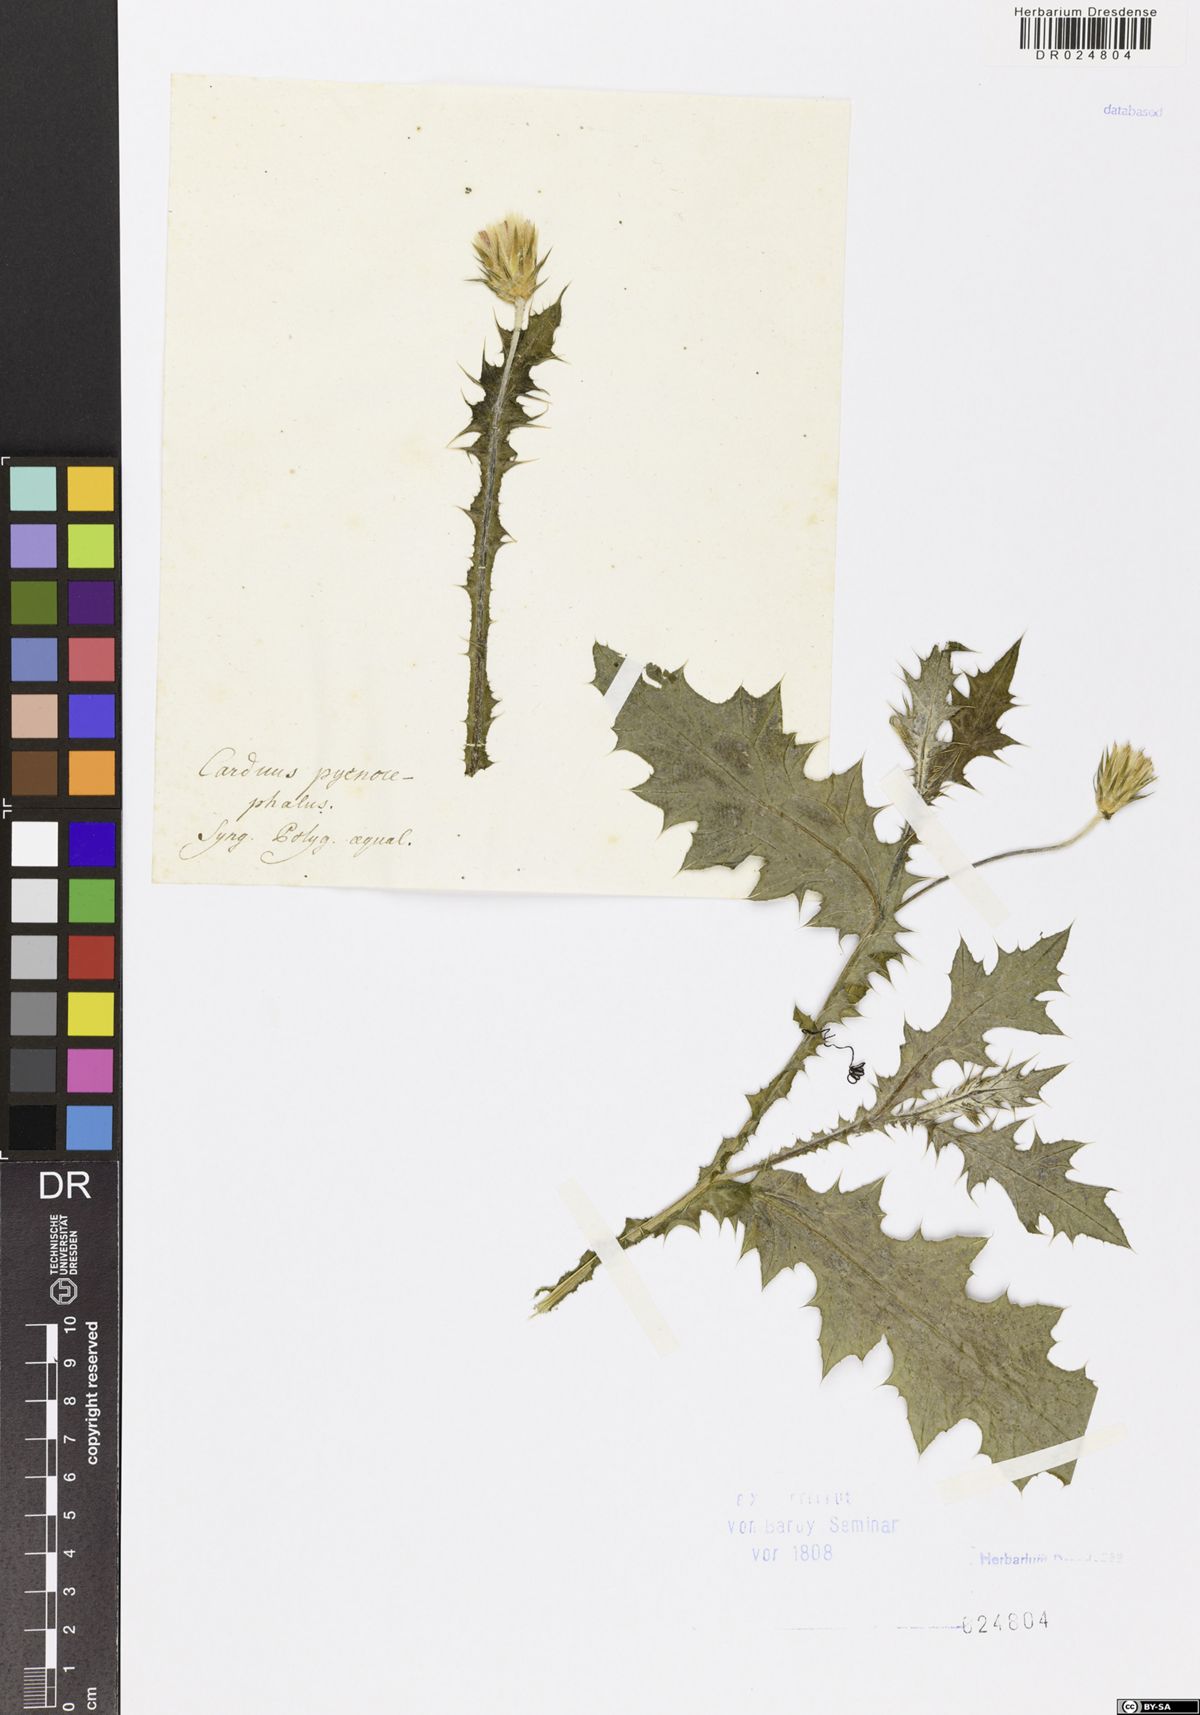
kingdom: Plantae
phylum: Tracheophyta
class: Magnoliopsida
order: Asterales
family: Asteraceae
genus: Carduus
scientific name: Carduus pycnocephalus
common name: Plymouth thistle
